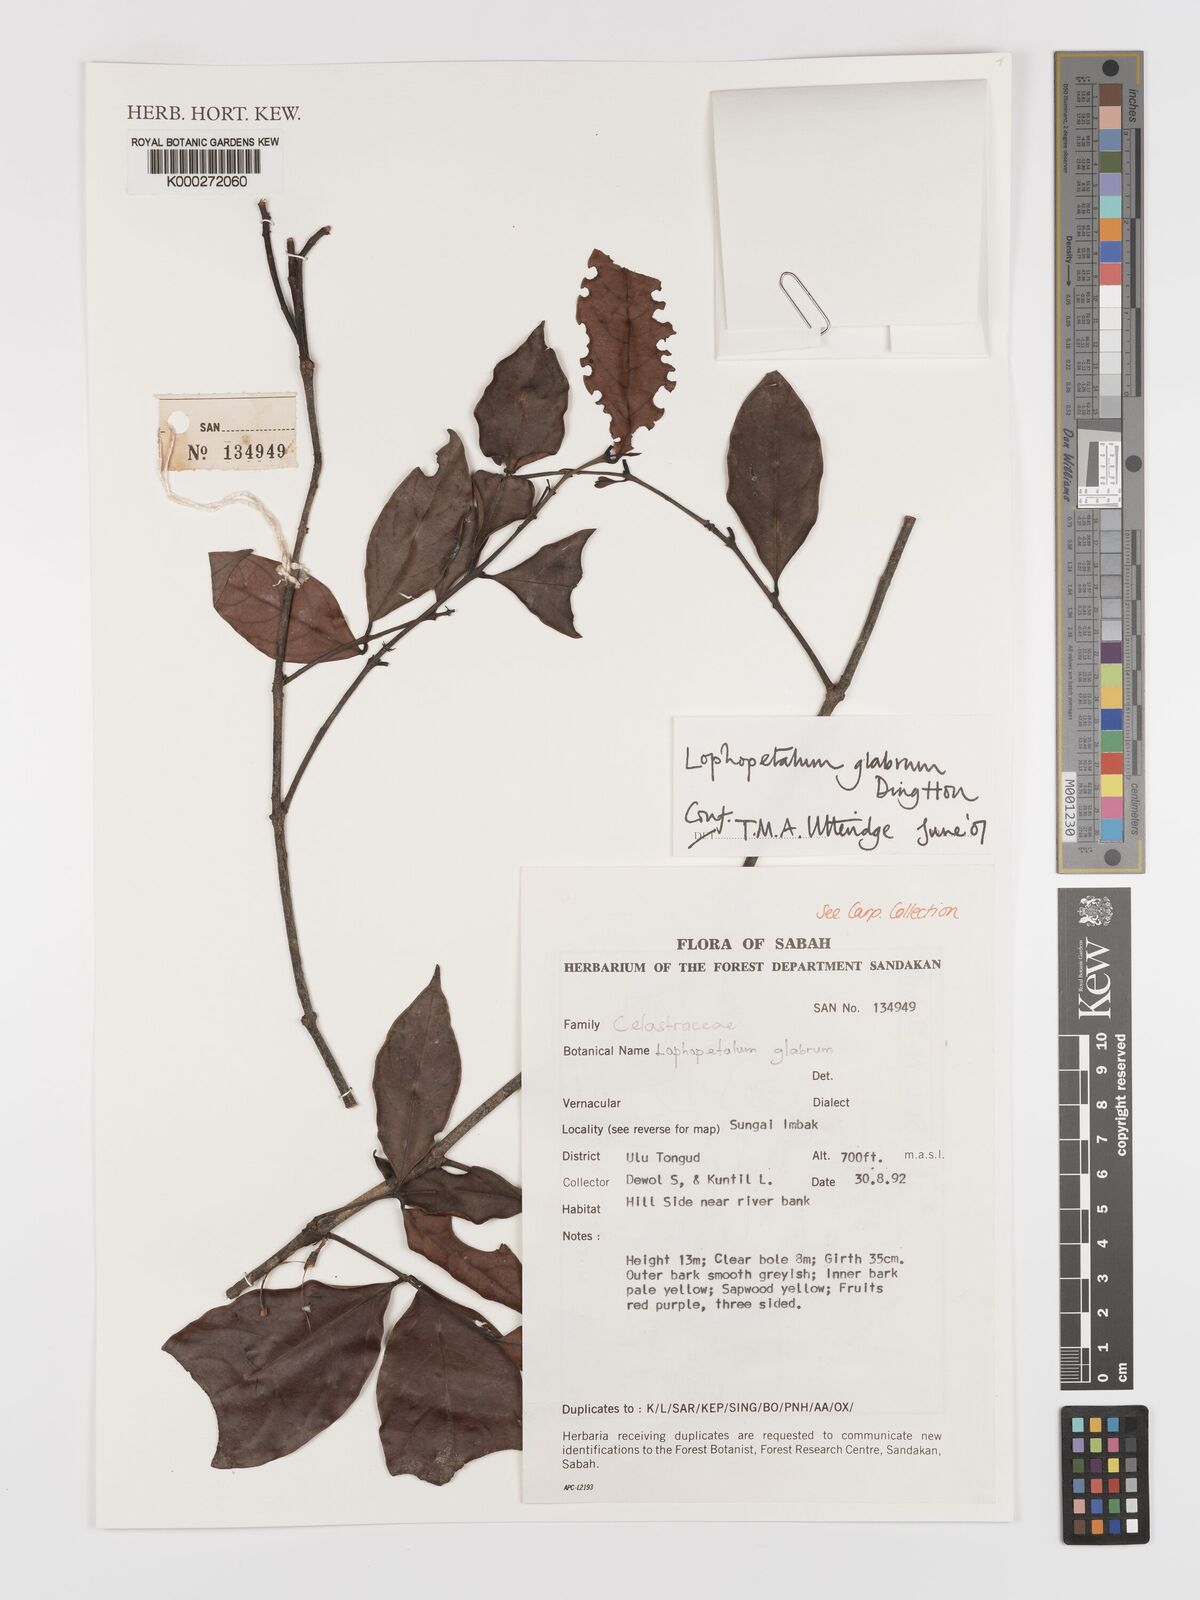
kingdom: Plantae
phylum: Tracheophyta
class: Magnoliopsida
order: Celastrales
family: Celastraceae
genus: Lophopetalum
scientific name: Lophopetalum glabrum
